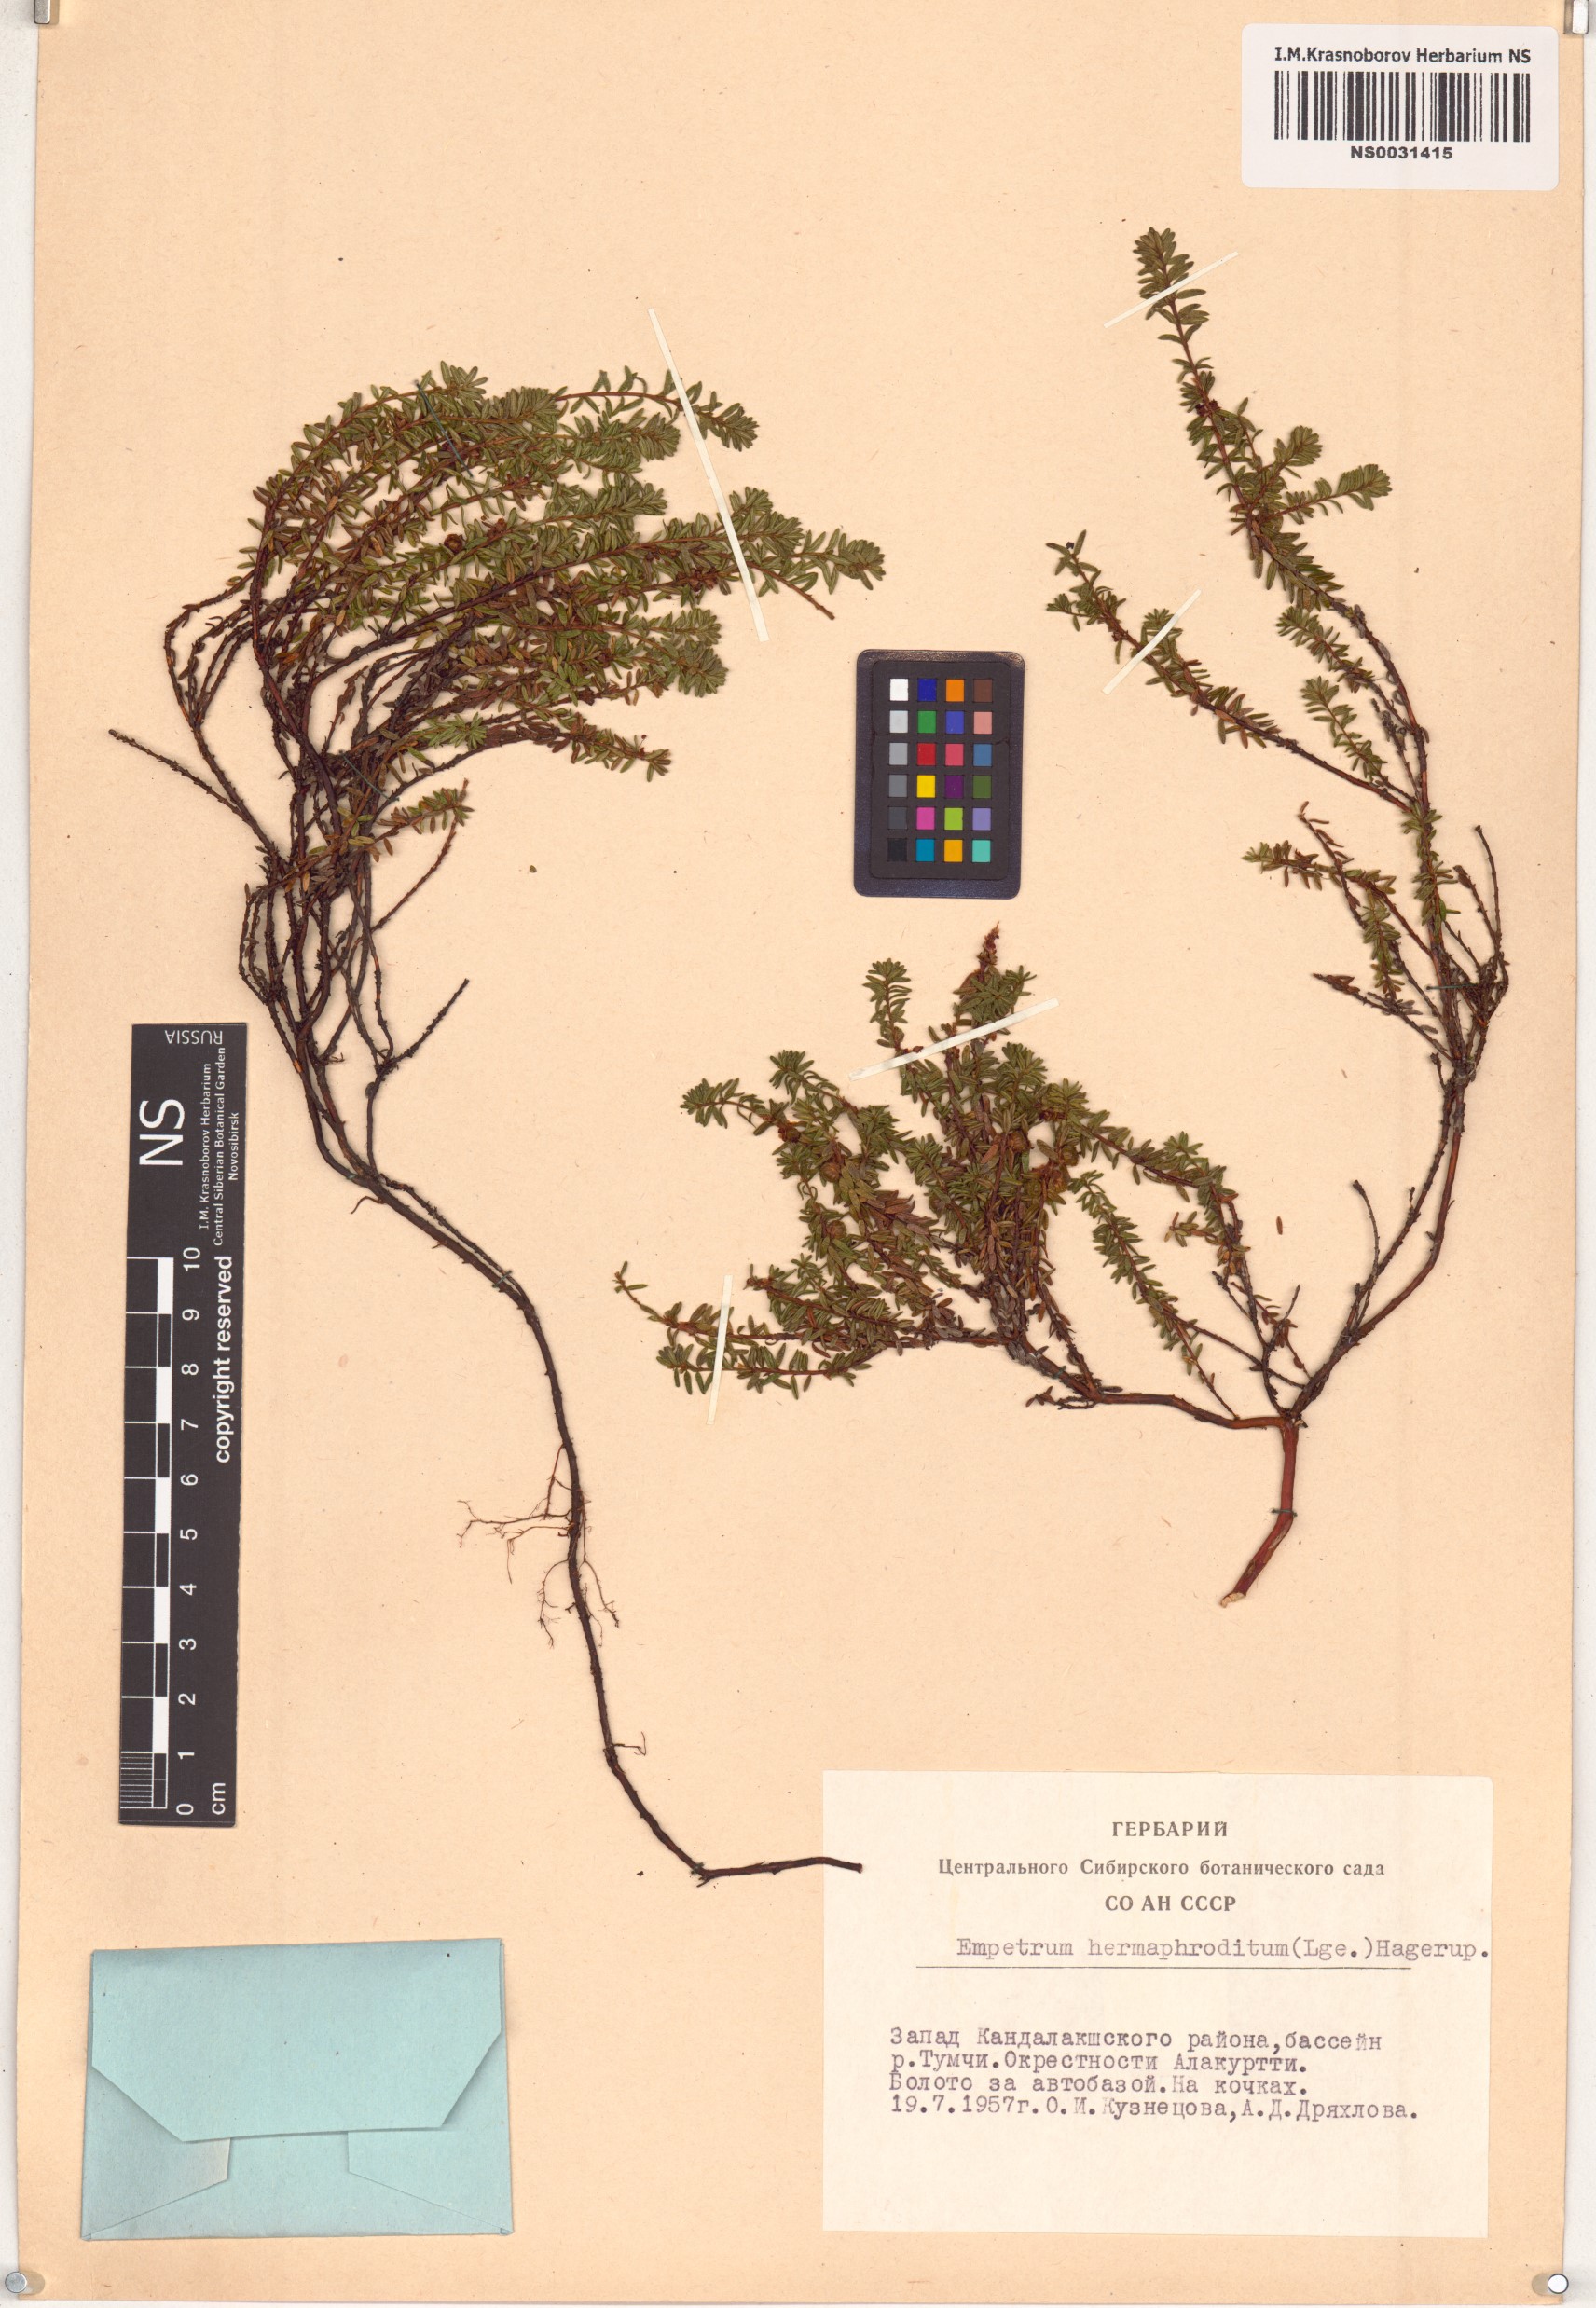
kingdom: Plantae
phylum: Tracheophyta
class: Magnoliopsida
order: Ericales
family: Ericaceae
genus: Empetrum
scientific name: Empetrum hermaphroditum
